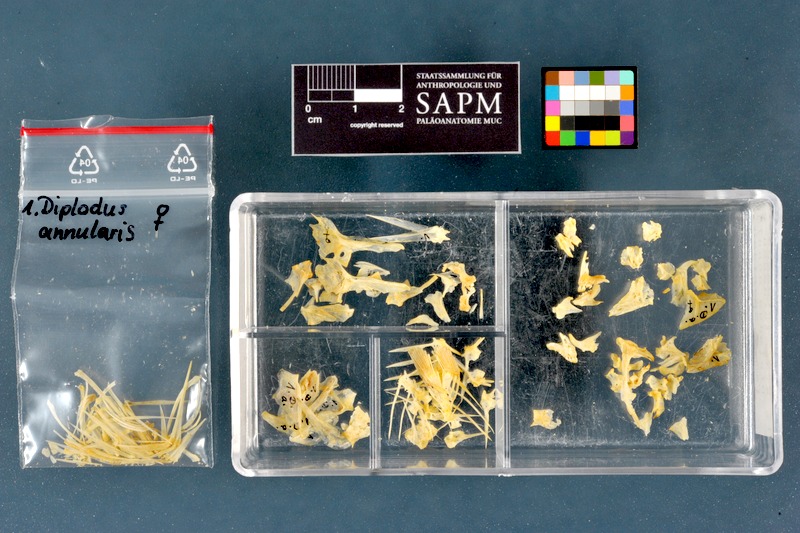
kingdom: Animalia
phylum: Chordata
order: Perciformes
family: Sparidae
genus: Diplodus
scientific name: Diplodus annularis
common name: Annular seabream
